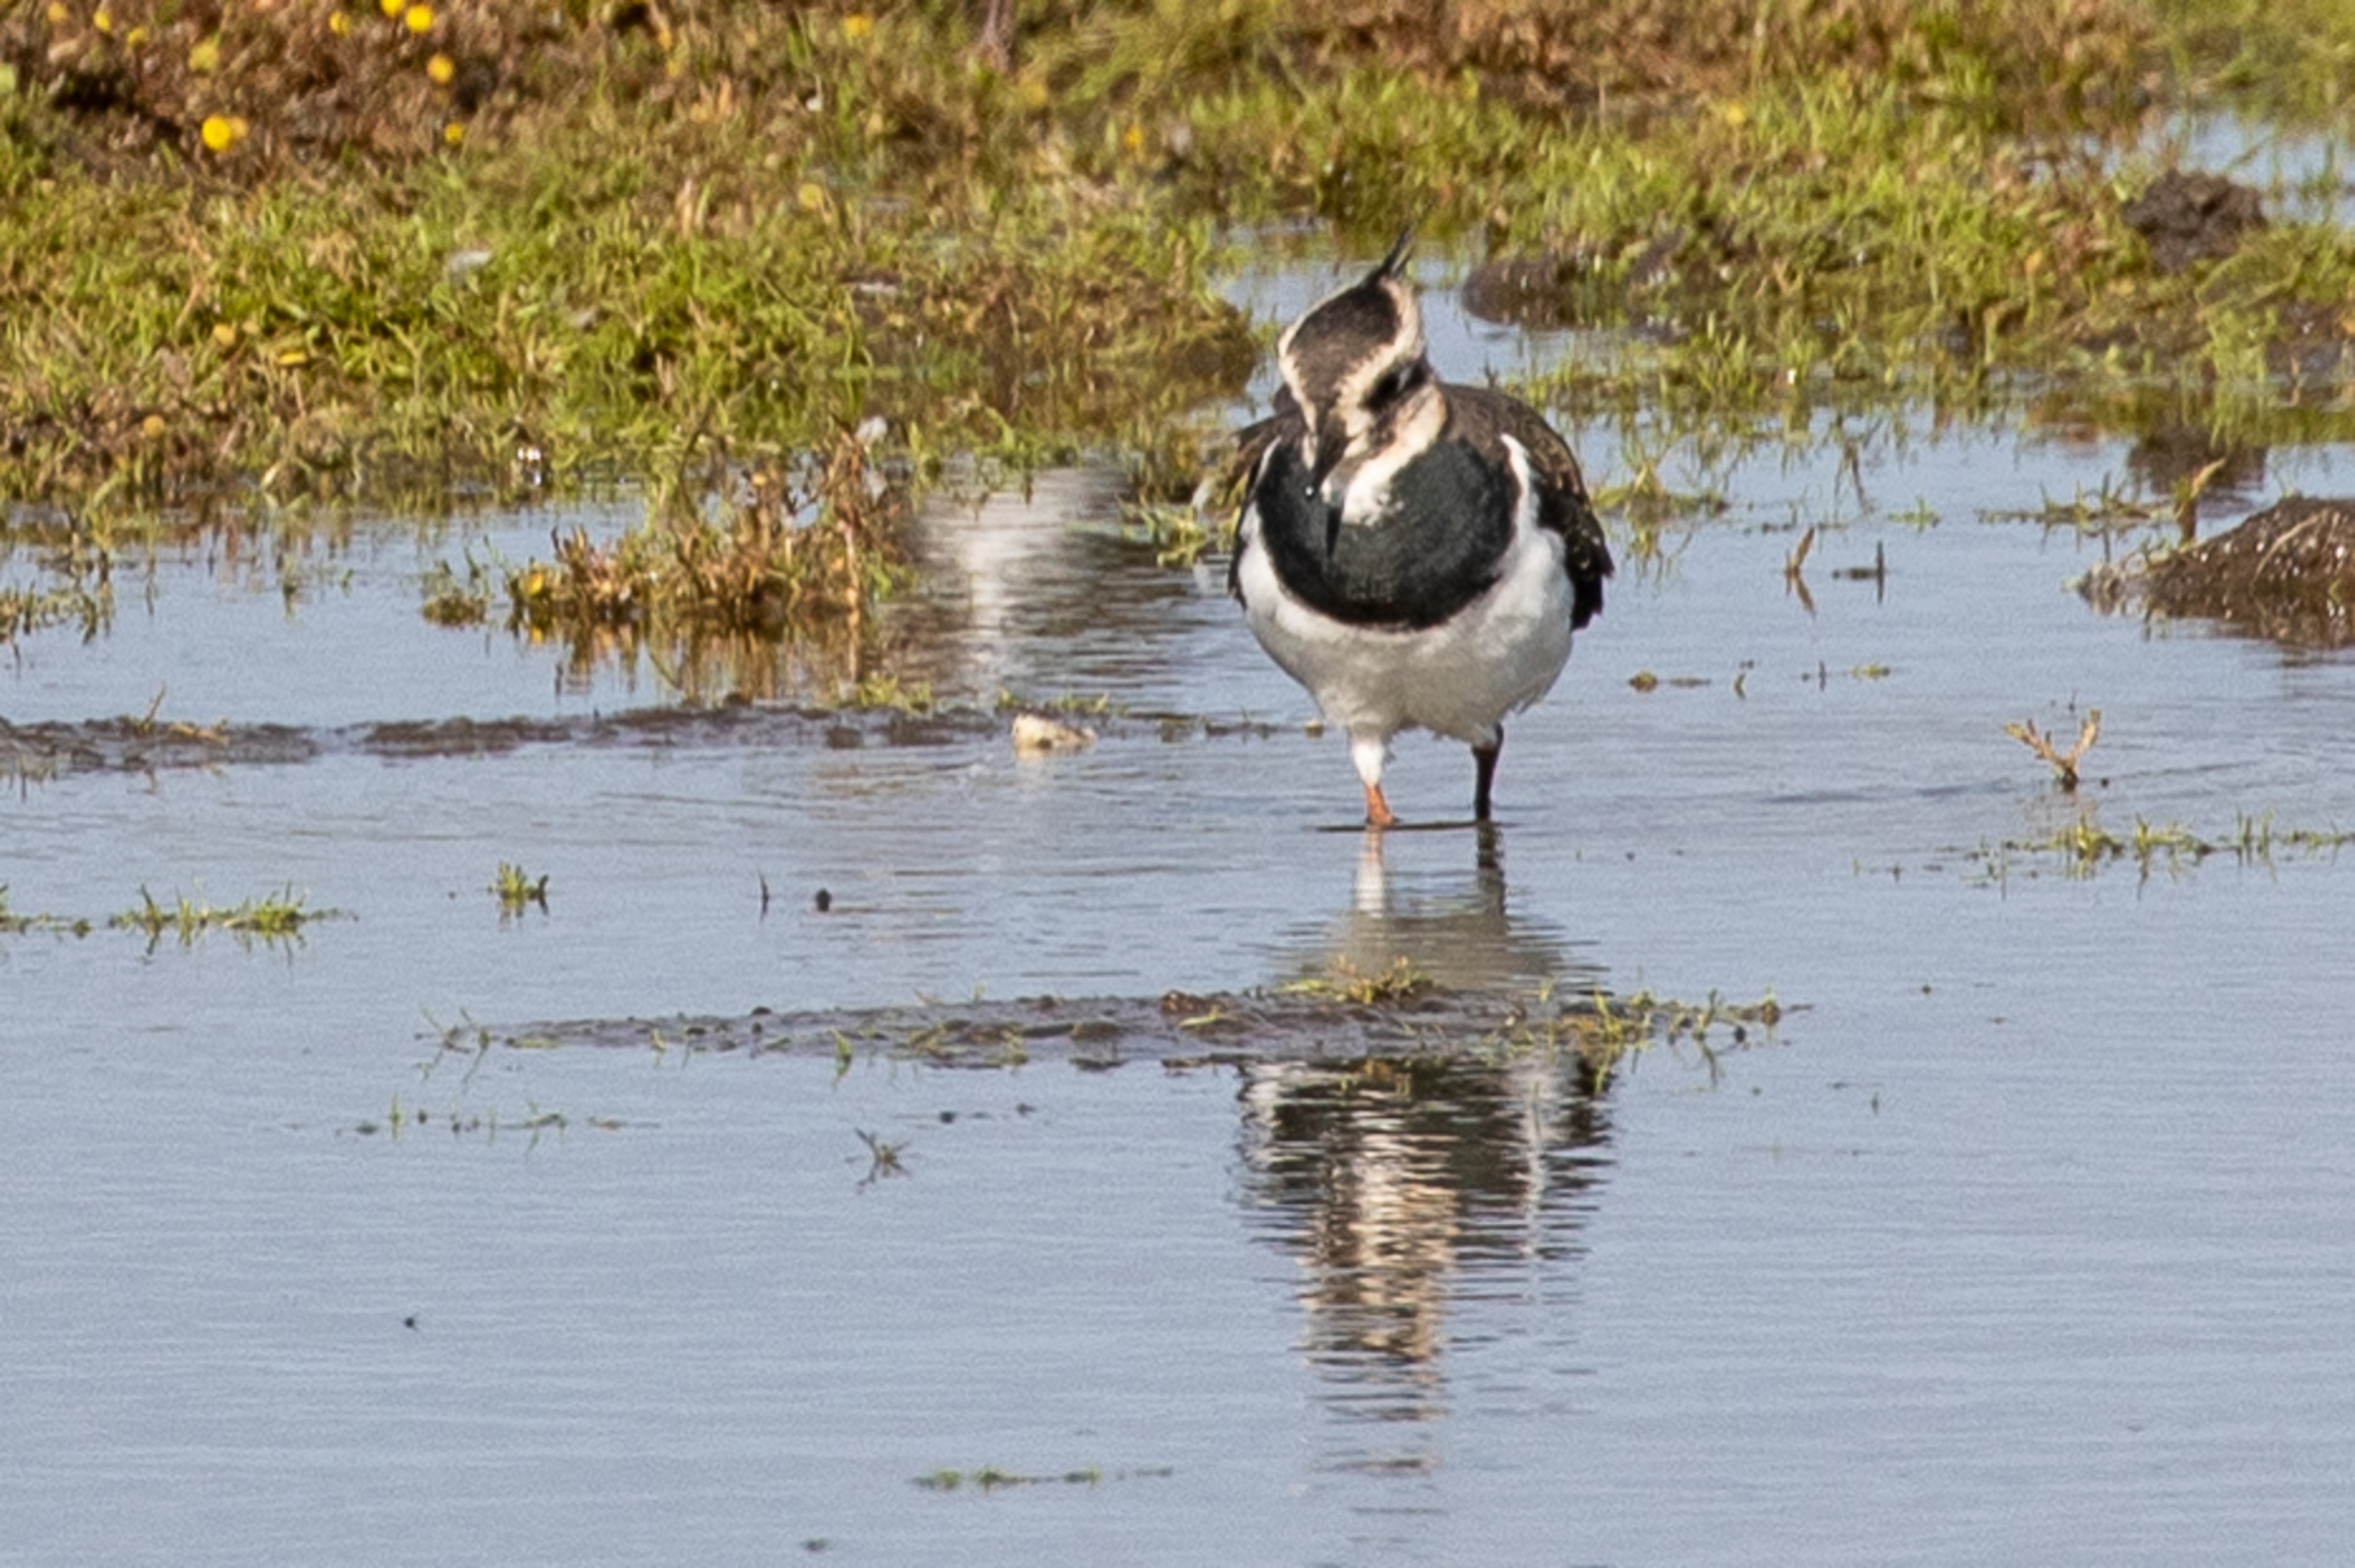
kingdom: Animalia
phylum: Chordata
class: Aves
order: Charadriiformes
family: Charadriidae
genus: Vanellus
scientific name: Vanellus vanellus
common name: Vibe
